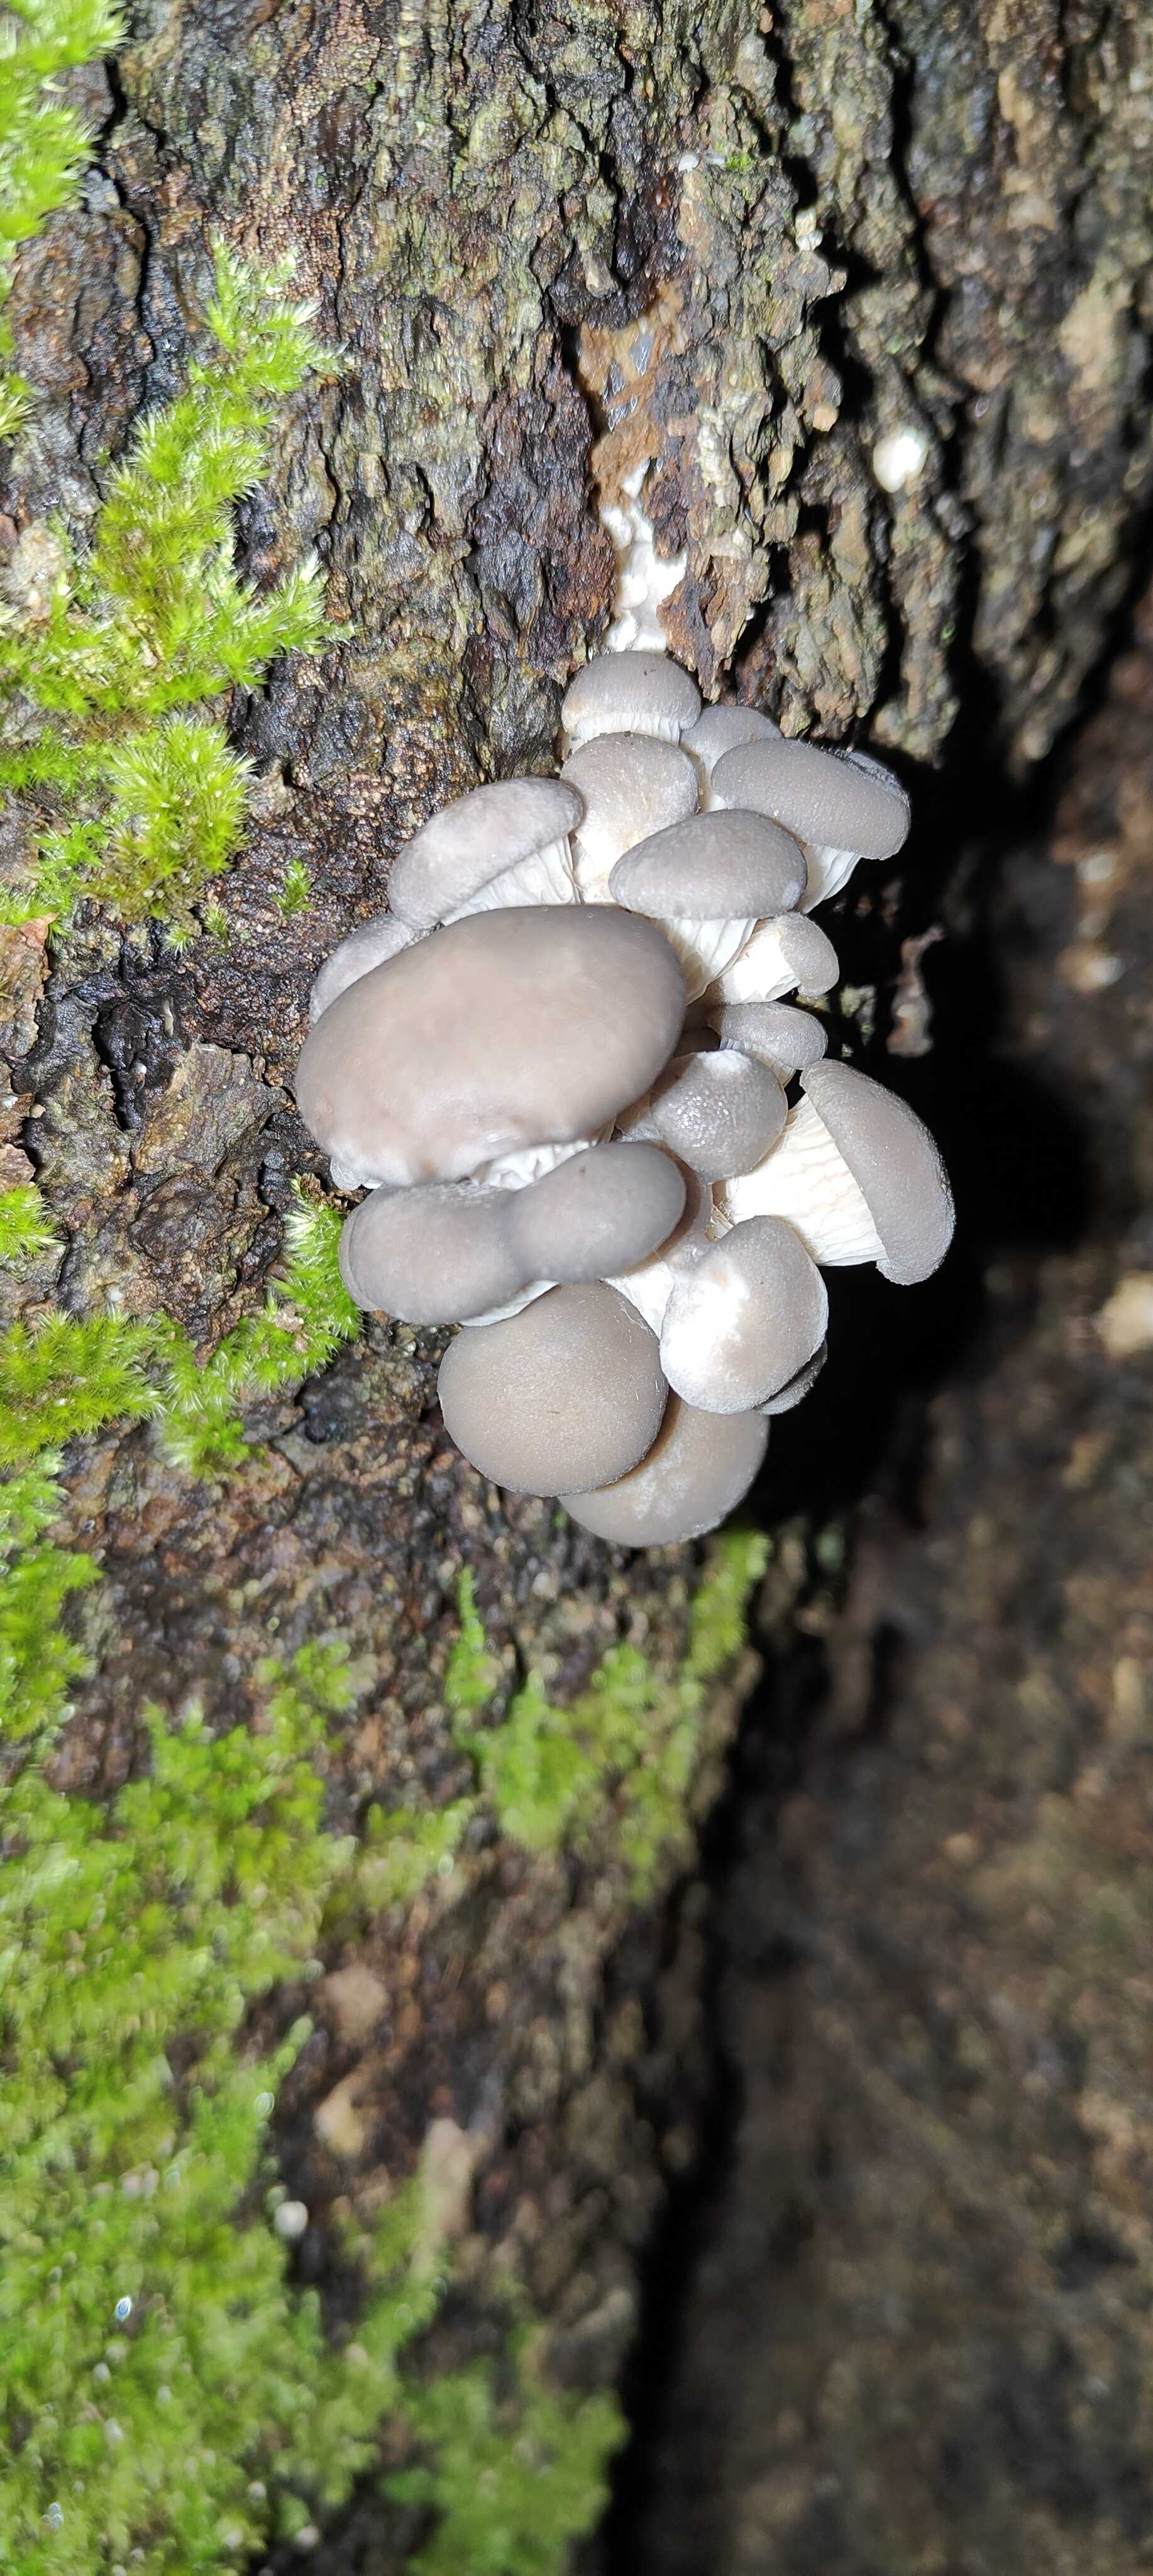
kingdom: Fungi
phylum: Basidiomycota
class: Agaricomycetes
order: Agaricales
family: Pleurotaceae
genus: Pleurotus
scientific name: Pleurotus ostreatus
